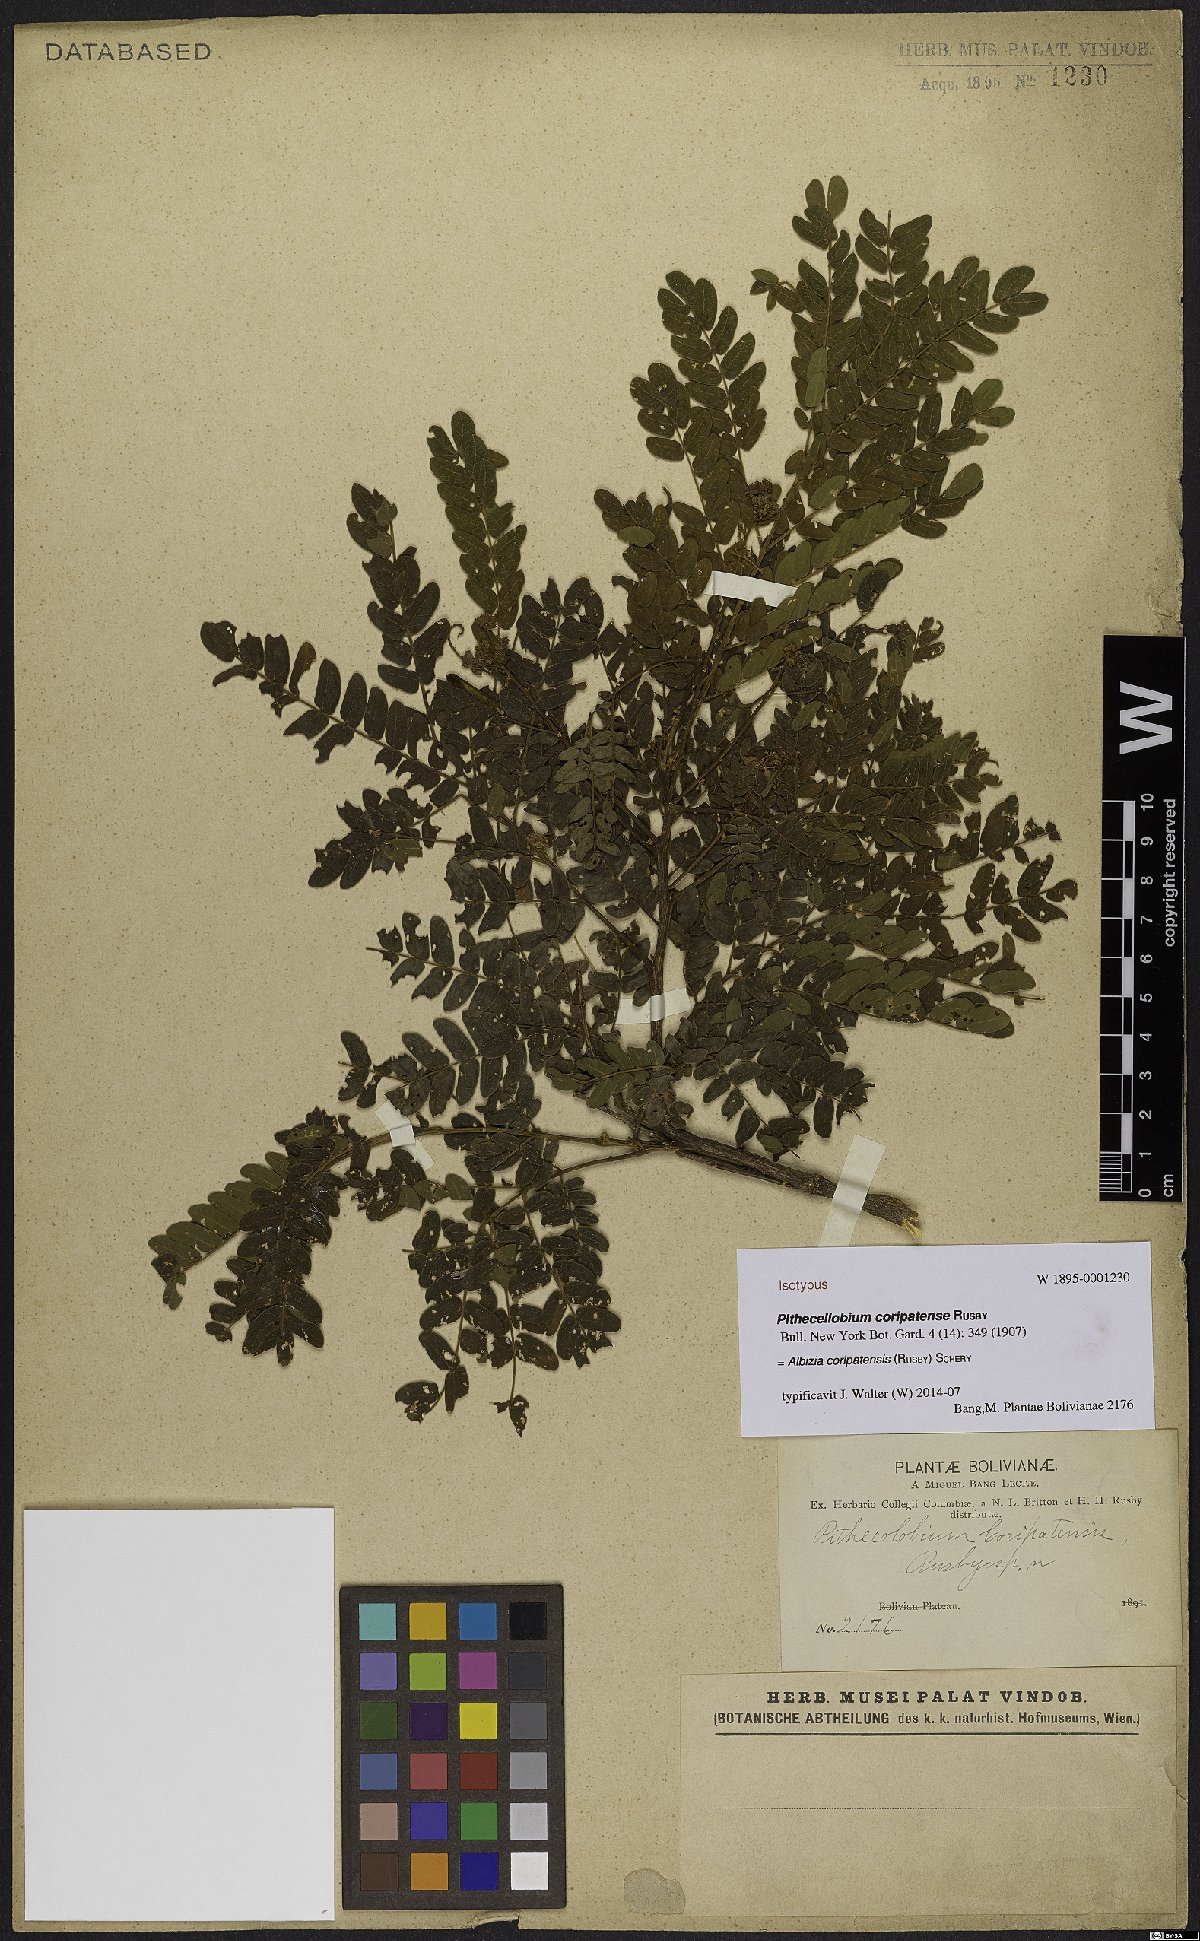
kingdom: Plantae
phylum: Tracheophyta
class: Magnoliopsida
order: Fabales
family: Fabaceae
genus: Albizia
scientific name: Albizia coripatensis
